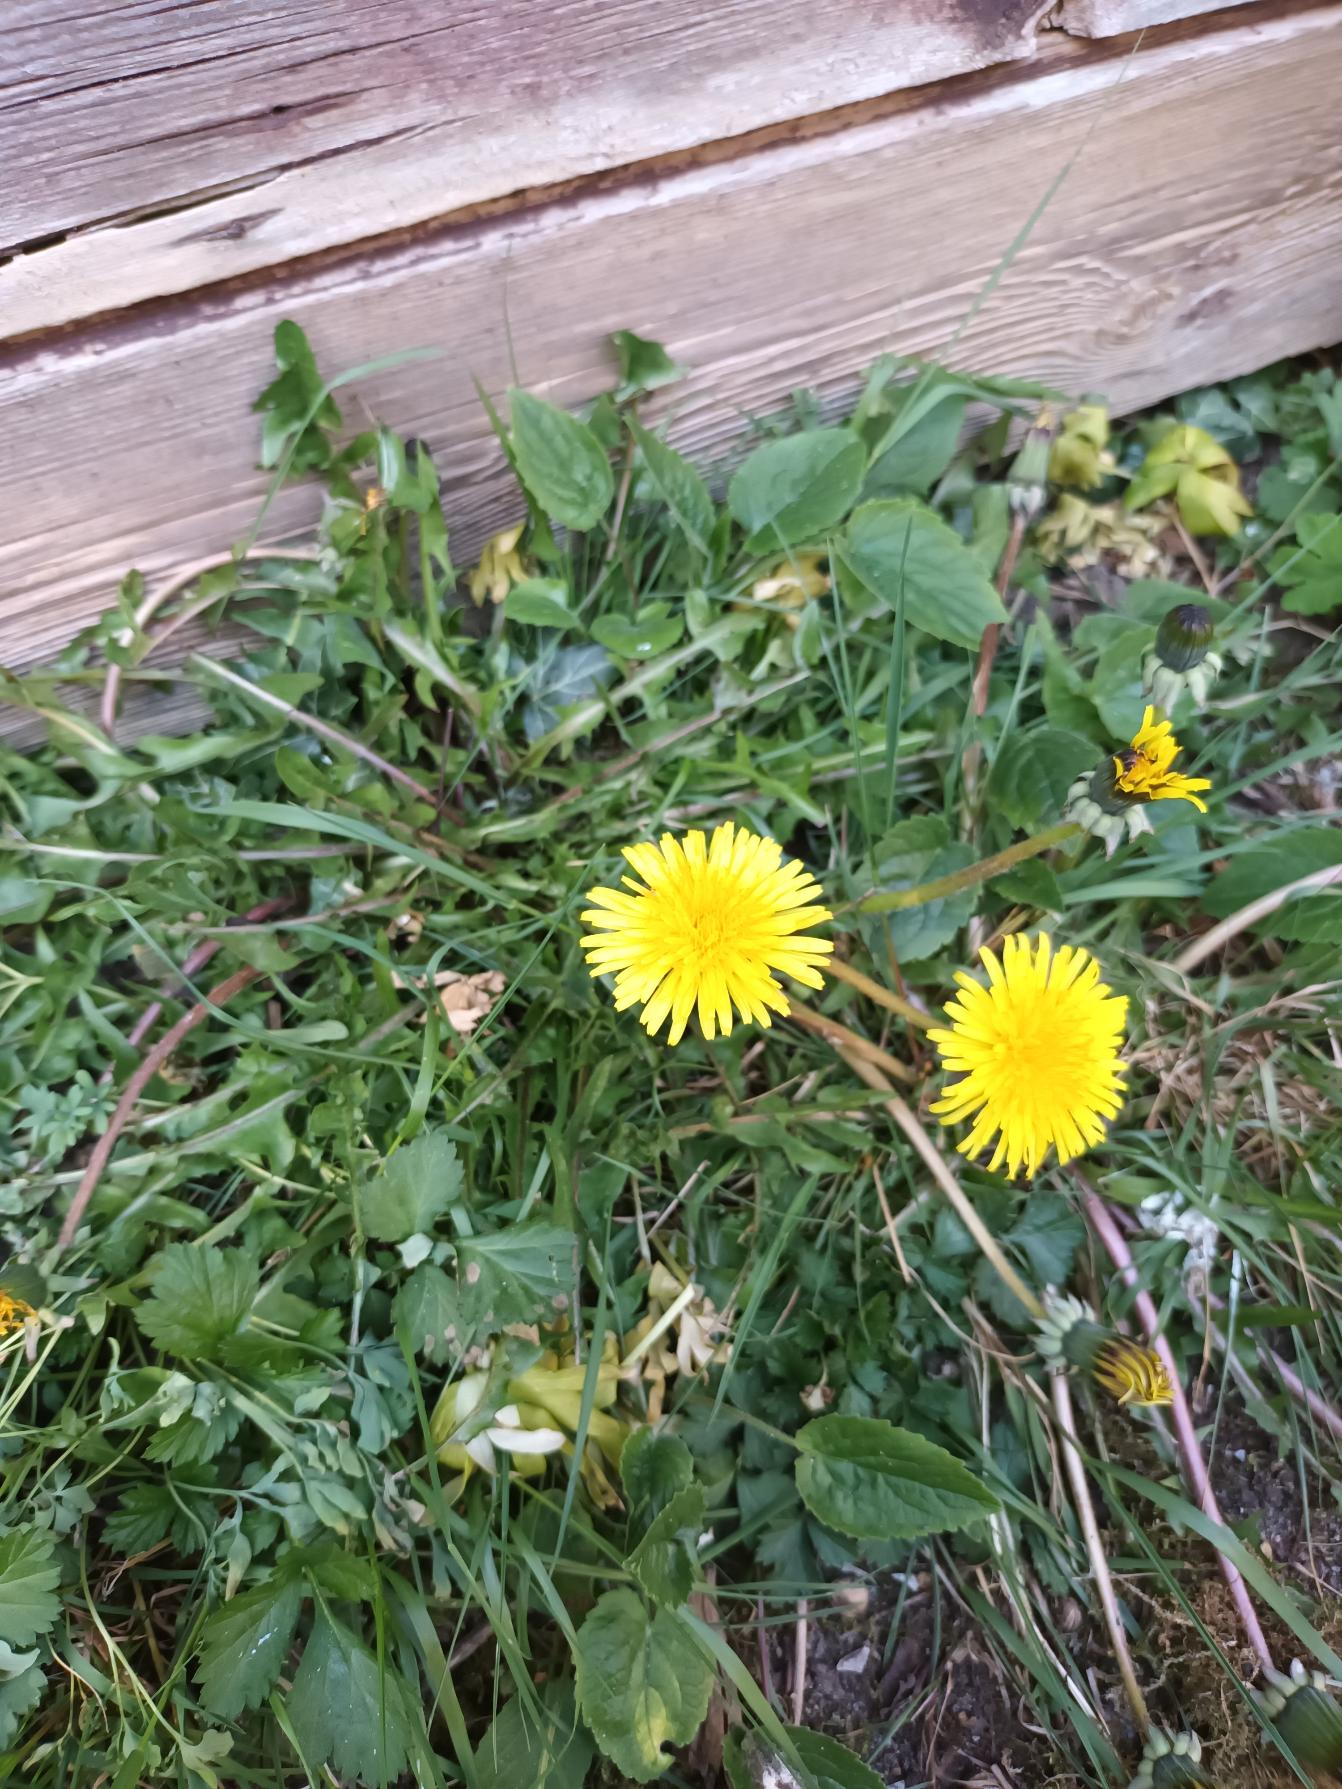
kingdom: Plantae
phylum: Tracheophyta
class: Magnoliopsida
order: Asterales
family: Asteraceae
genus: Taraxacum
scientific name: Taraxacum
